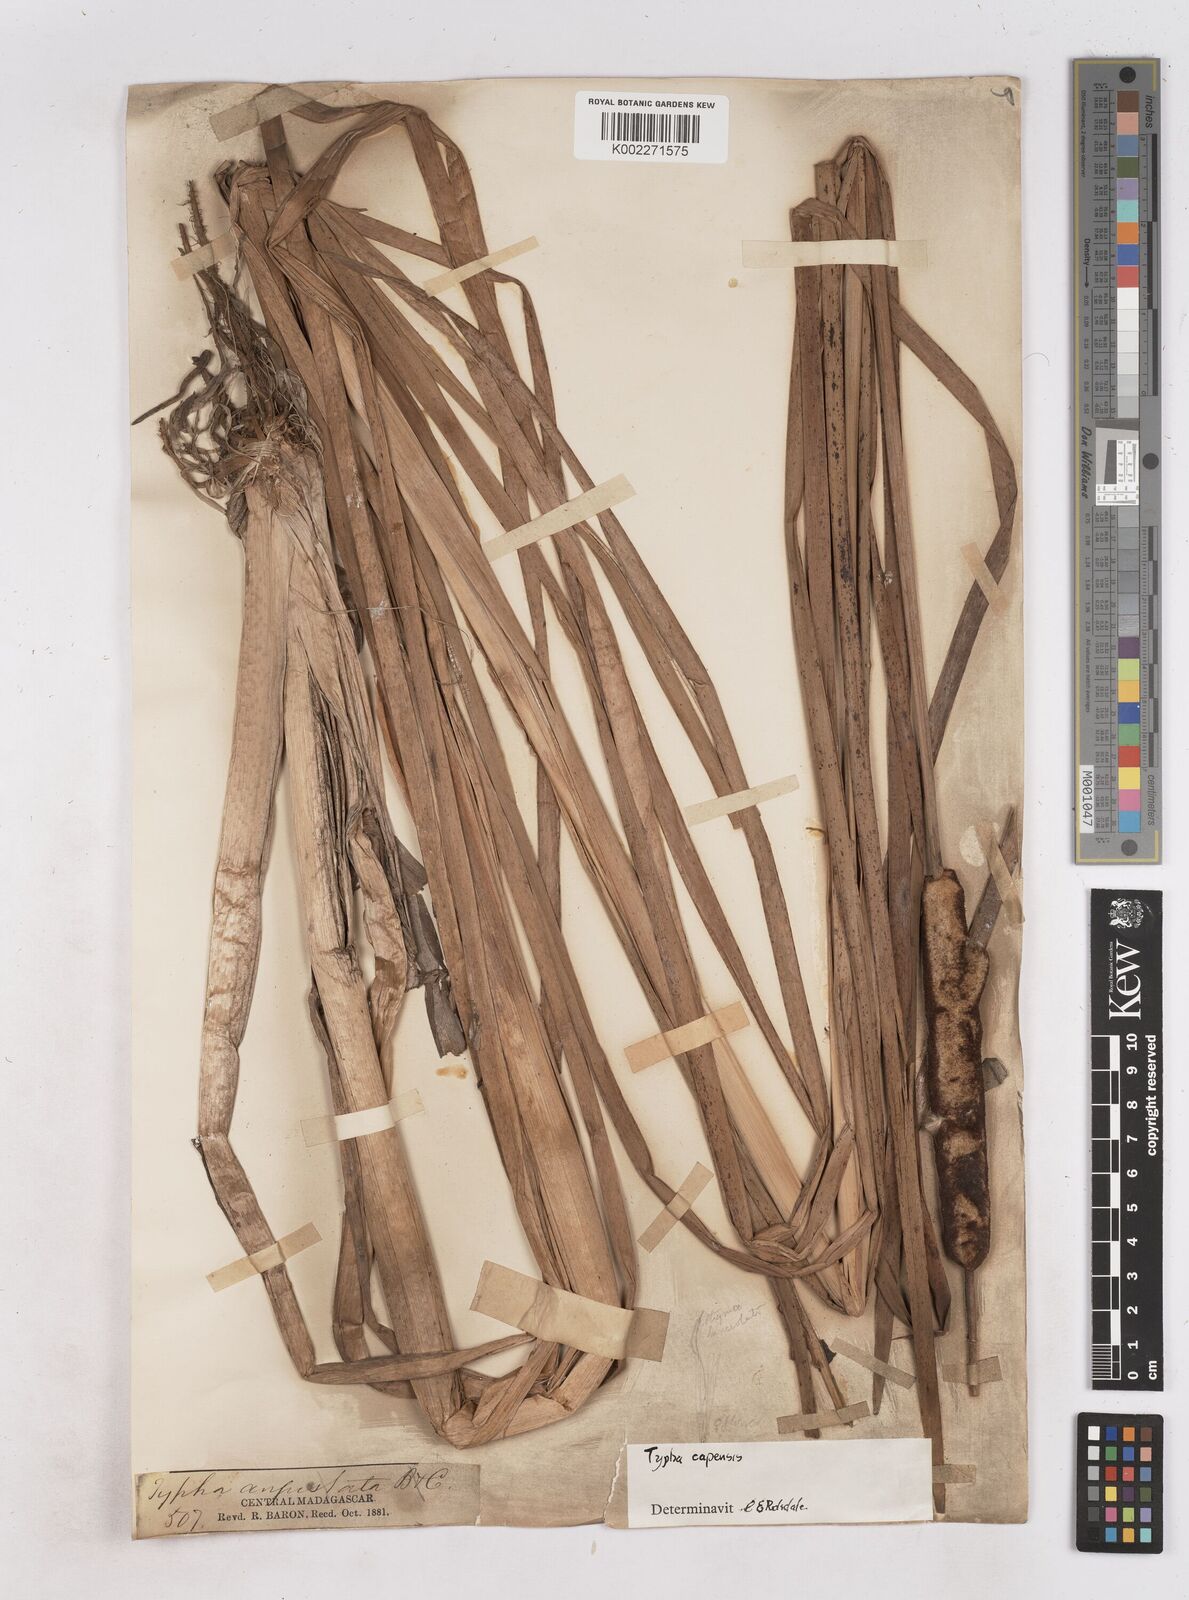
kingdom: Plantae
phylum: Tracheophyta
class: Liliopsida
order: Poales
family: Typhaceae
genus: Typha
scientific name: Typha capensis
